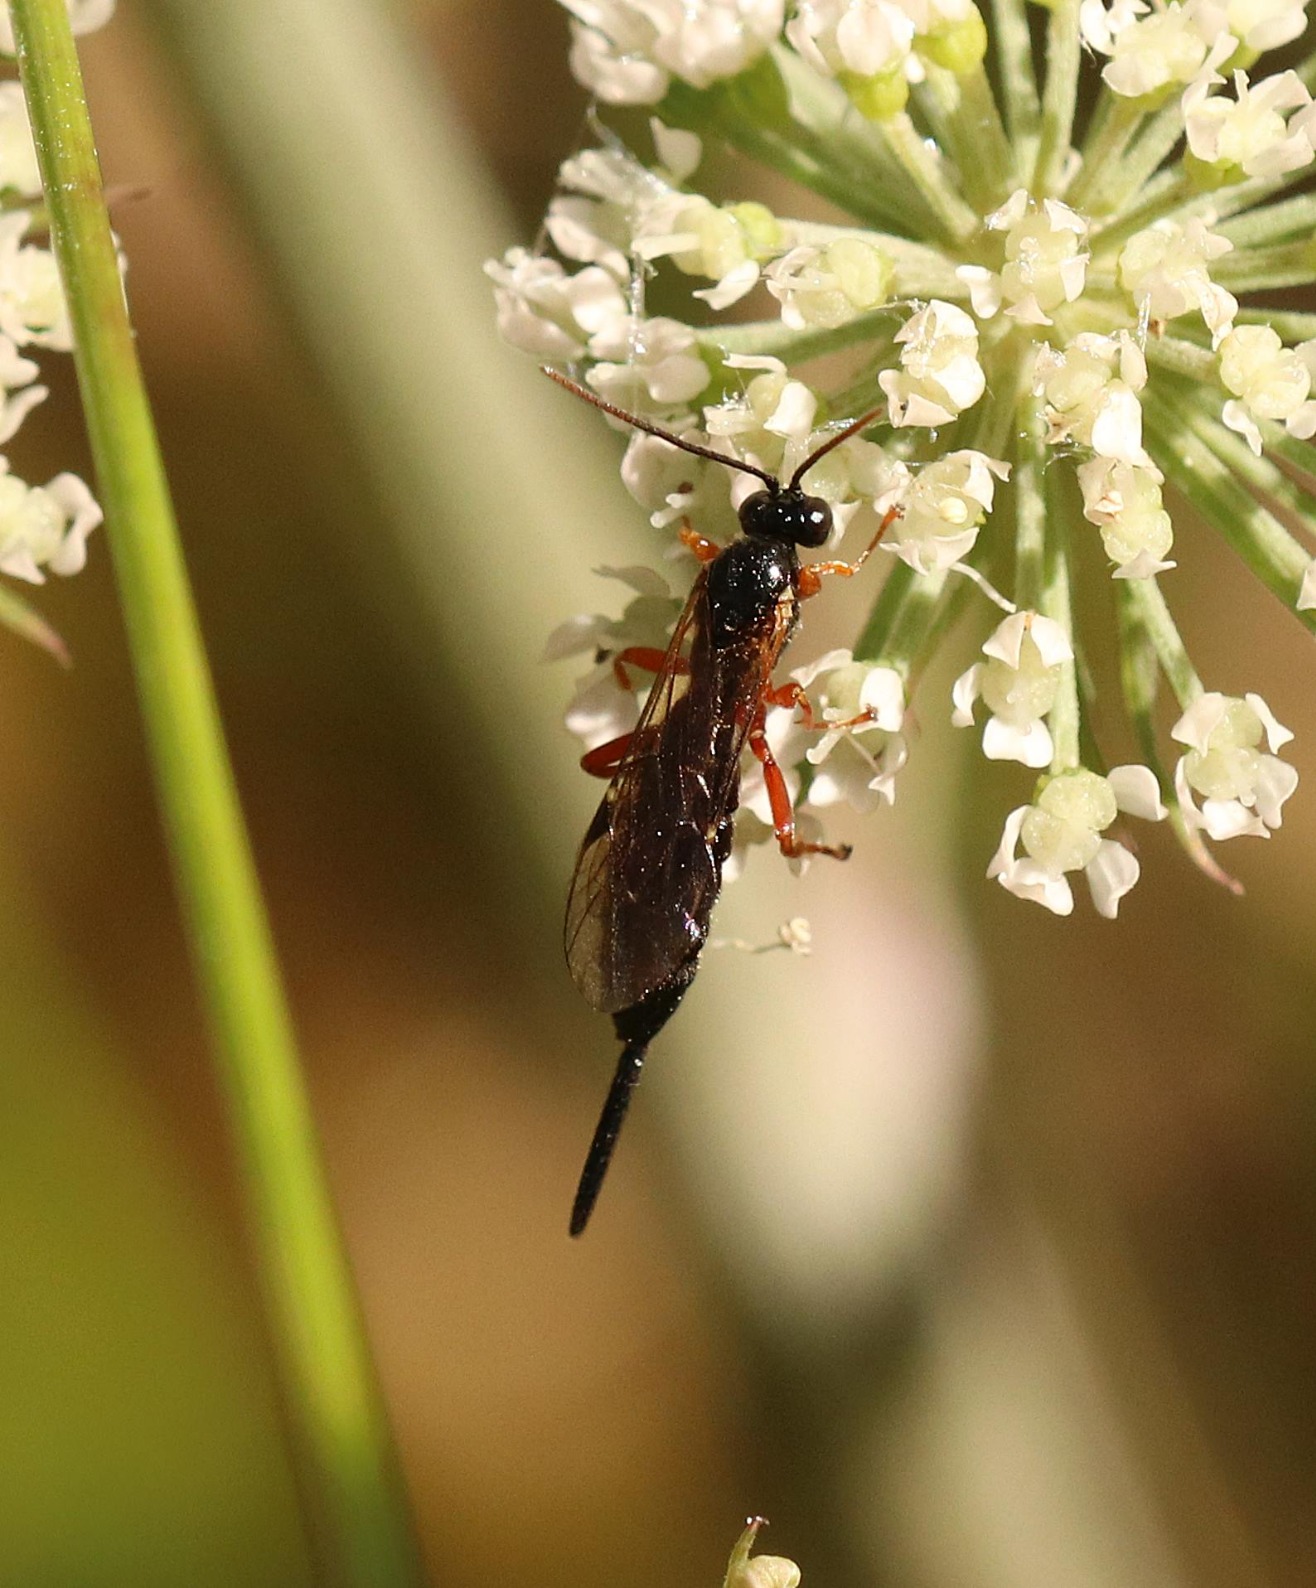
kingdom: Animalia
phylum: Arthropoda
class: Insecta
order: Hymenoptera
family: Ichneumonidae
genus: Scambus
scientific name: Scambus nigricans
